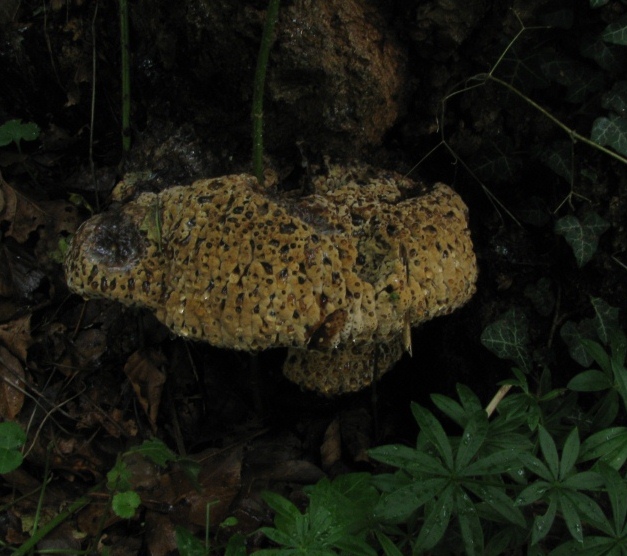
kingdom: Fungi
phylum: Basidiomycota
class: Agaricomycetes
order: Hymenochaetales
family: Hymenochaetaceae
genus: Pseudoinonotus
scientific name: Pseudoinonotus dryadeus
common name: ege-spejlporesvamp
